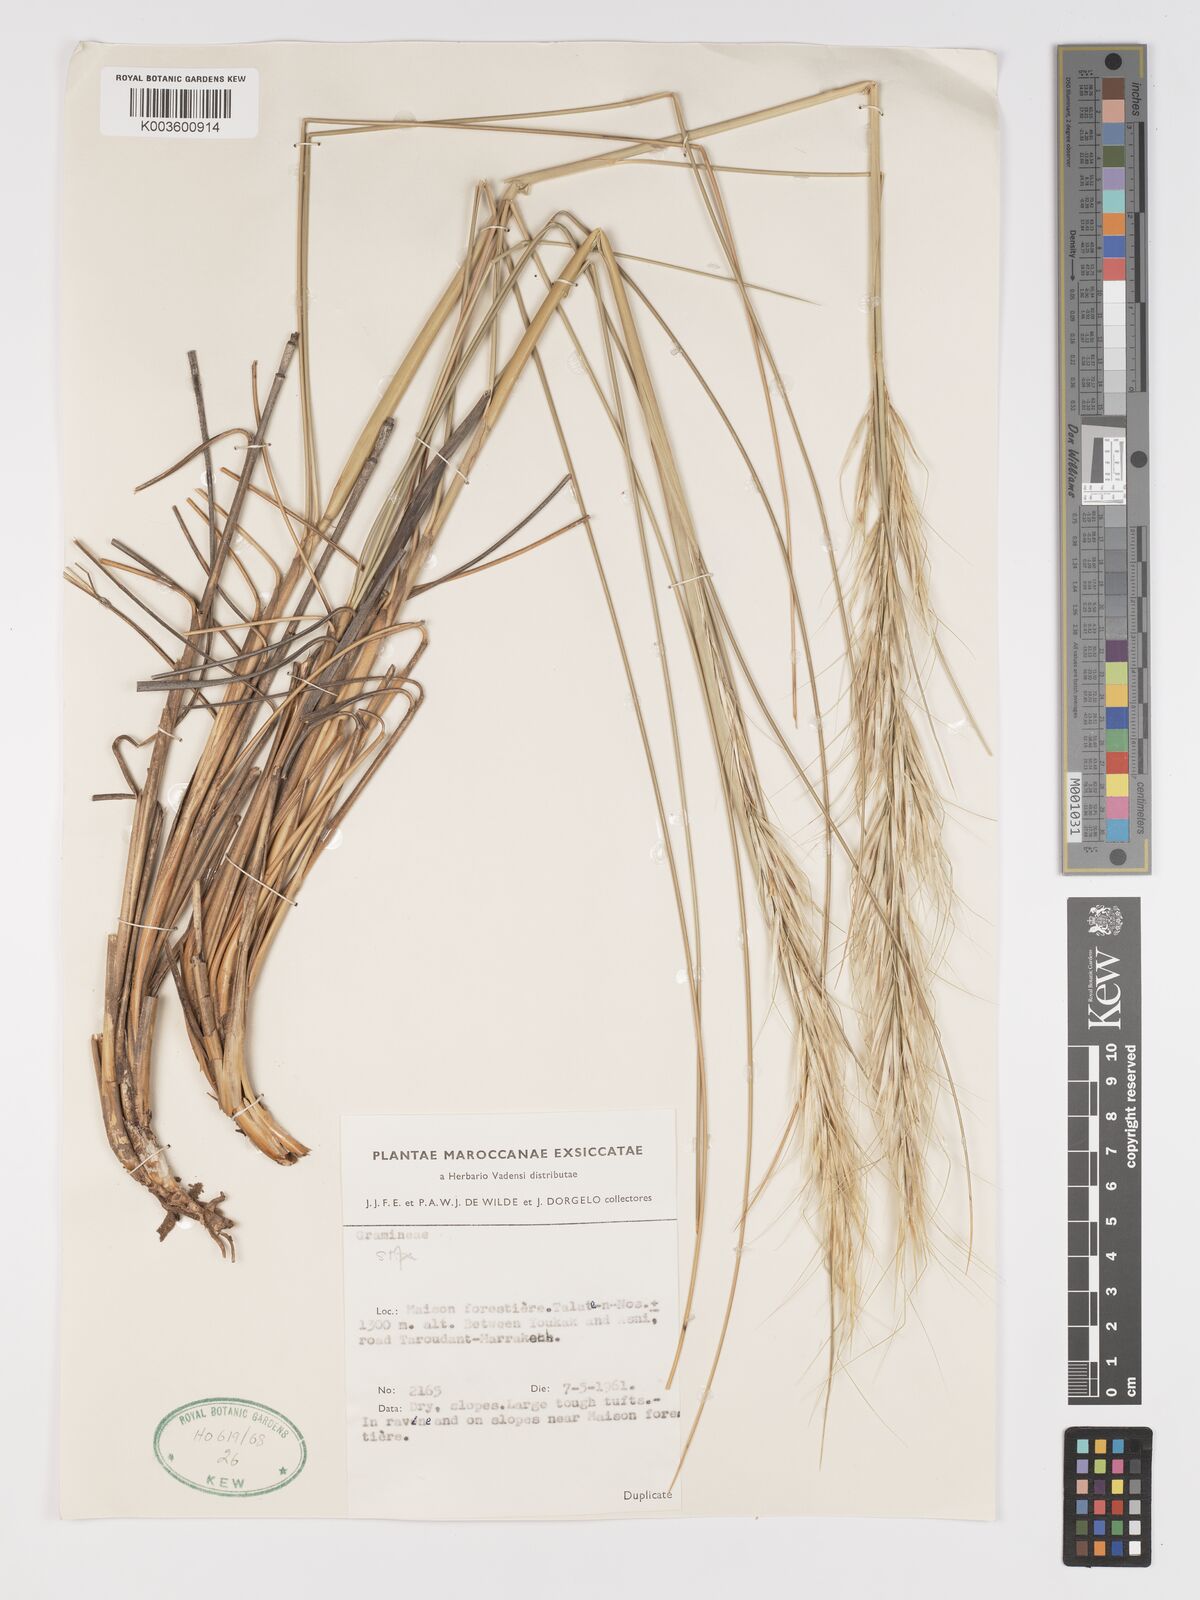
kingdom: Plantae
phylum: Tracheophyta
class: Liliopsida
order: Poales
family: Poaceae
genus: Macrochloa
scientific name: Macrochloa tenacissima
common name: Alfa grass
